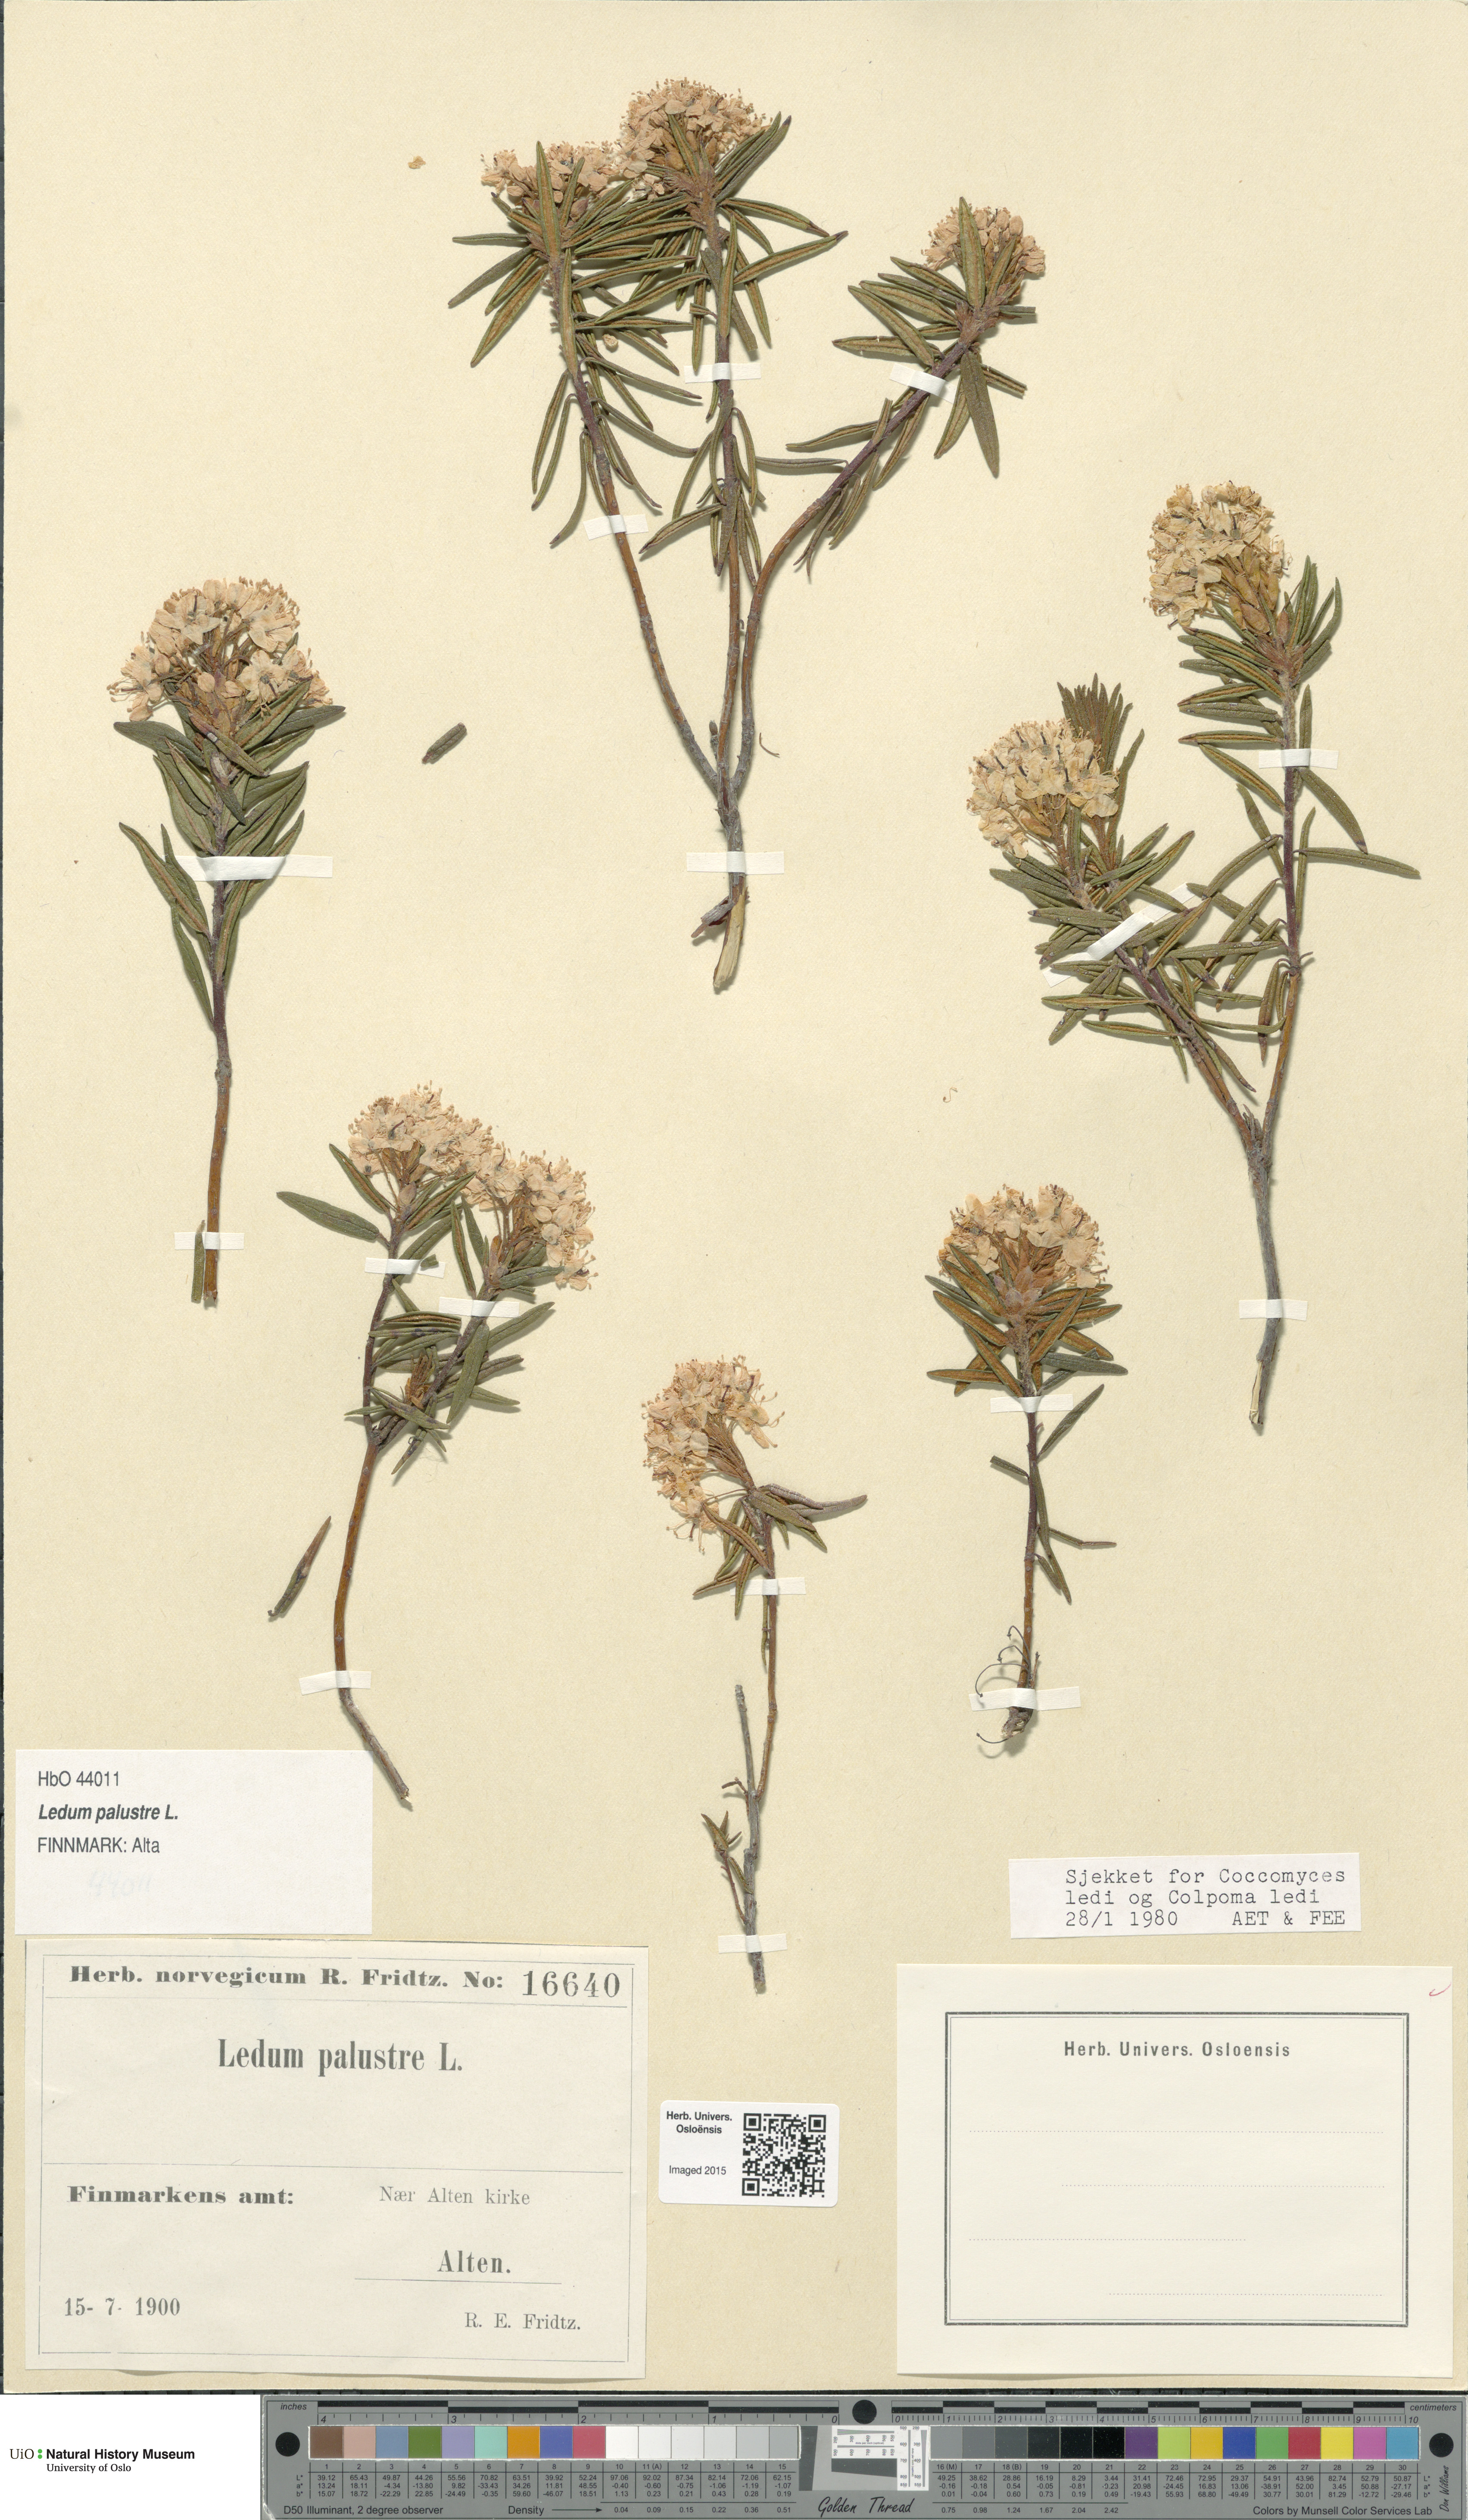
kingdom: Plantae
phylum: Tracheophyta
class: Magnoliopsida
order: Ericales
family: Ericaceae
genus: Rhododendron
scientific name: Rhododendron tomentosum
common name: Marsh labrador tea
